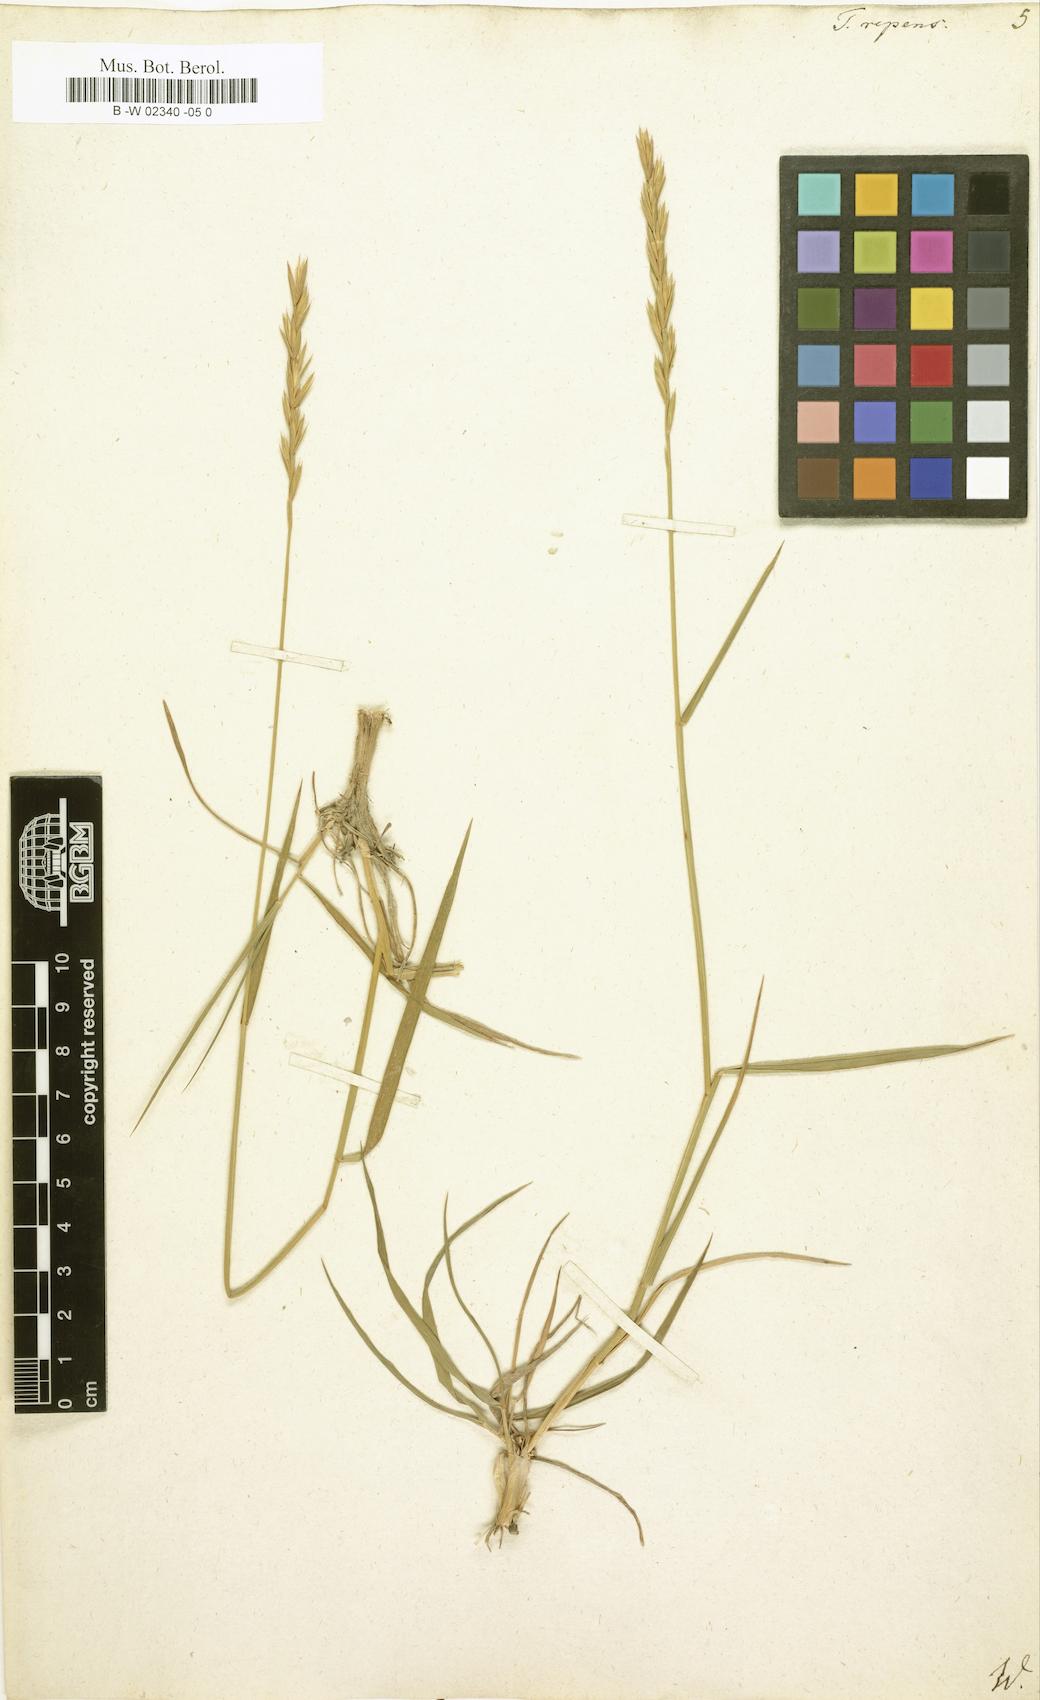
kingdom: Plantae
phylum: Tracheophyta
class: Liliopsida
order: Poales
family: Poaceae
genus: Elymus
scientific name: Elymus repens
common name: Quackgrass
